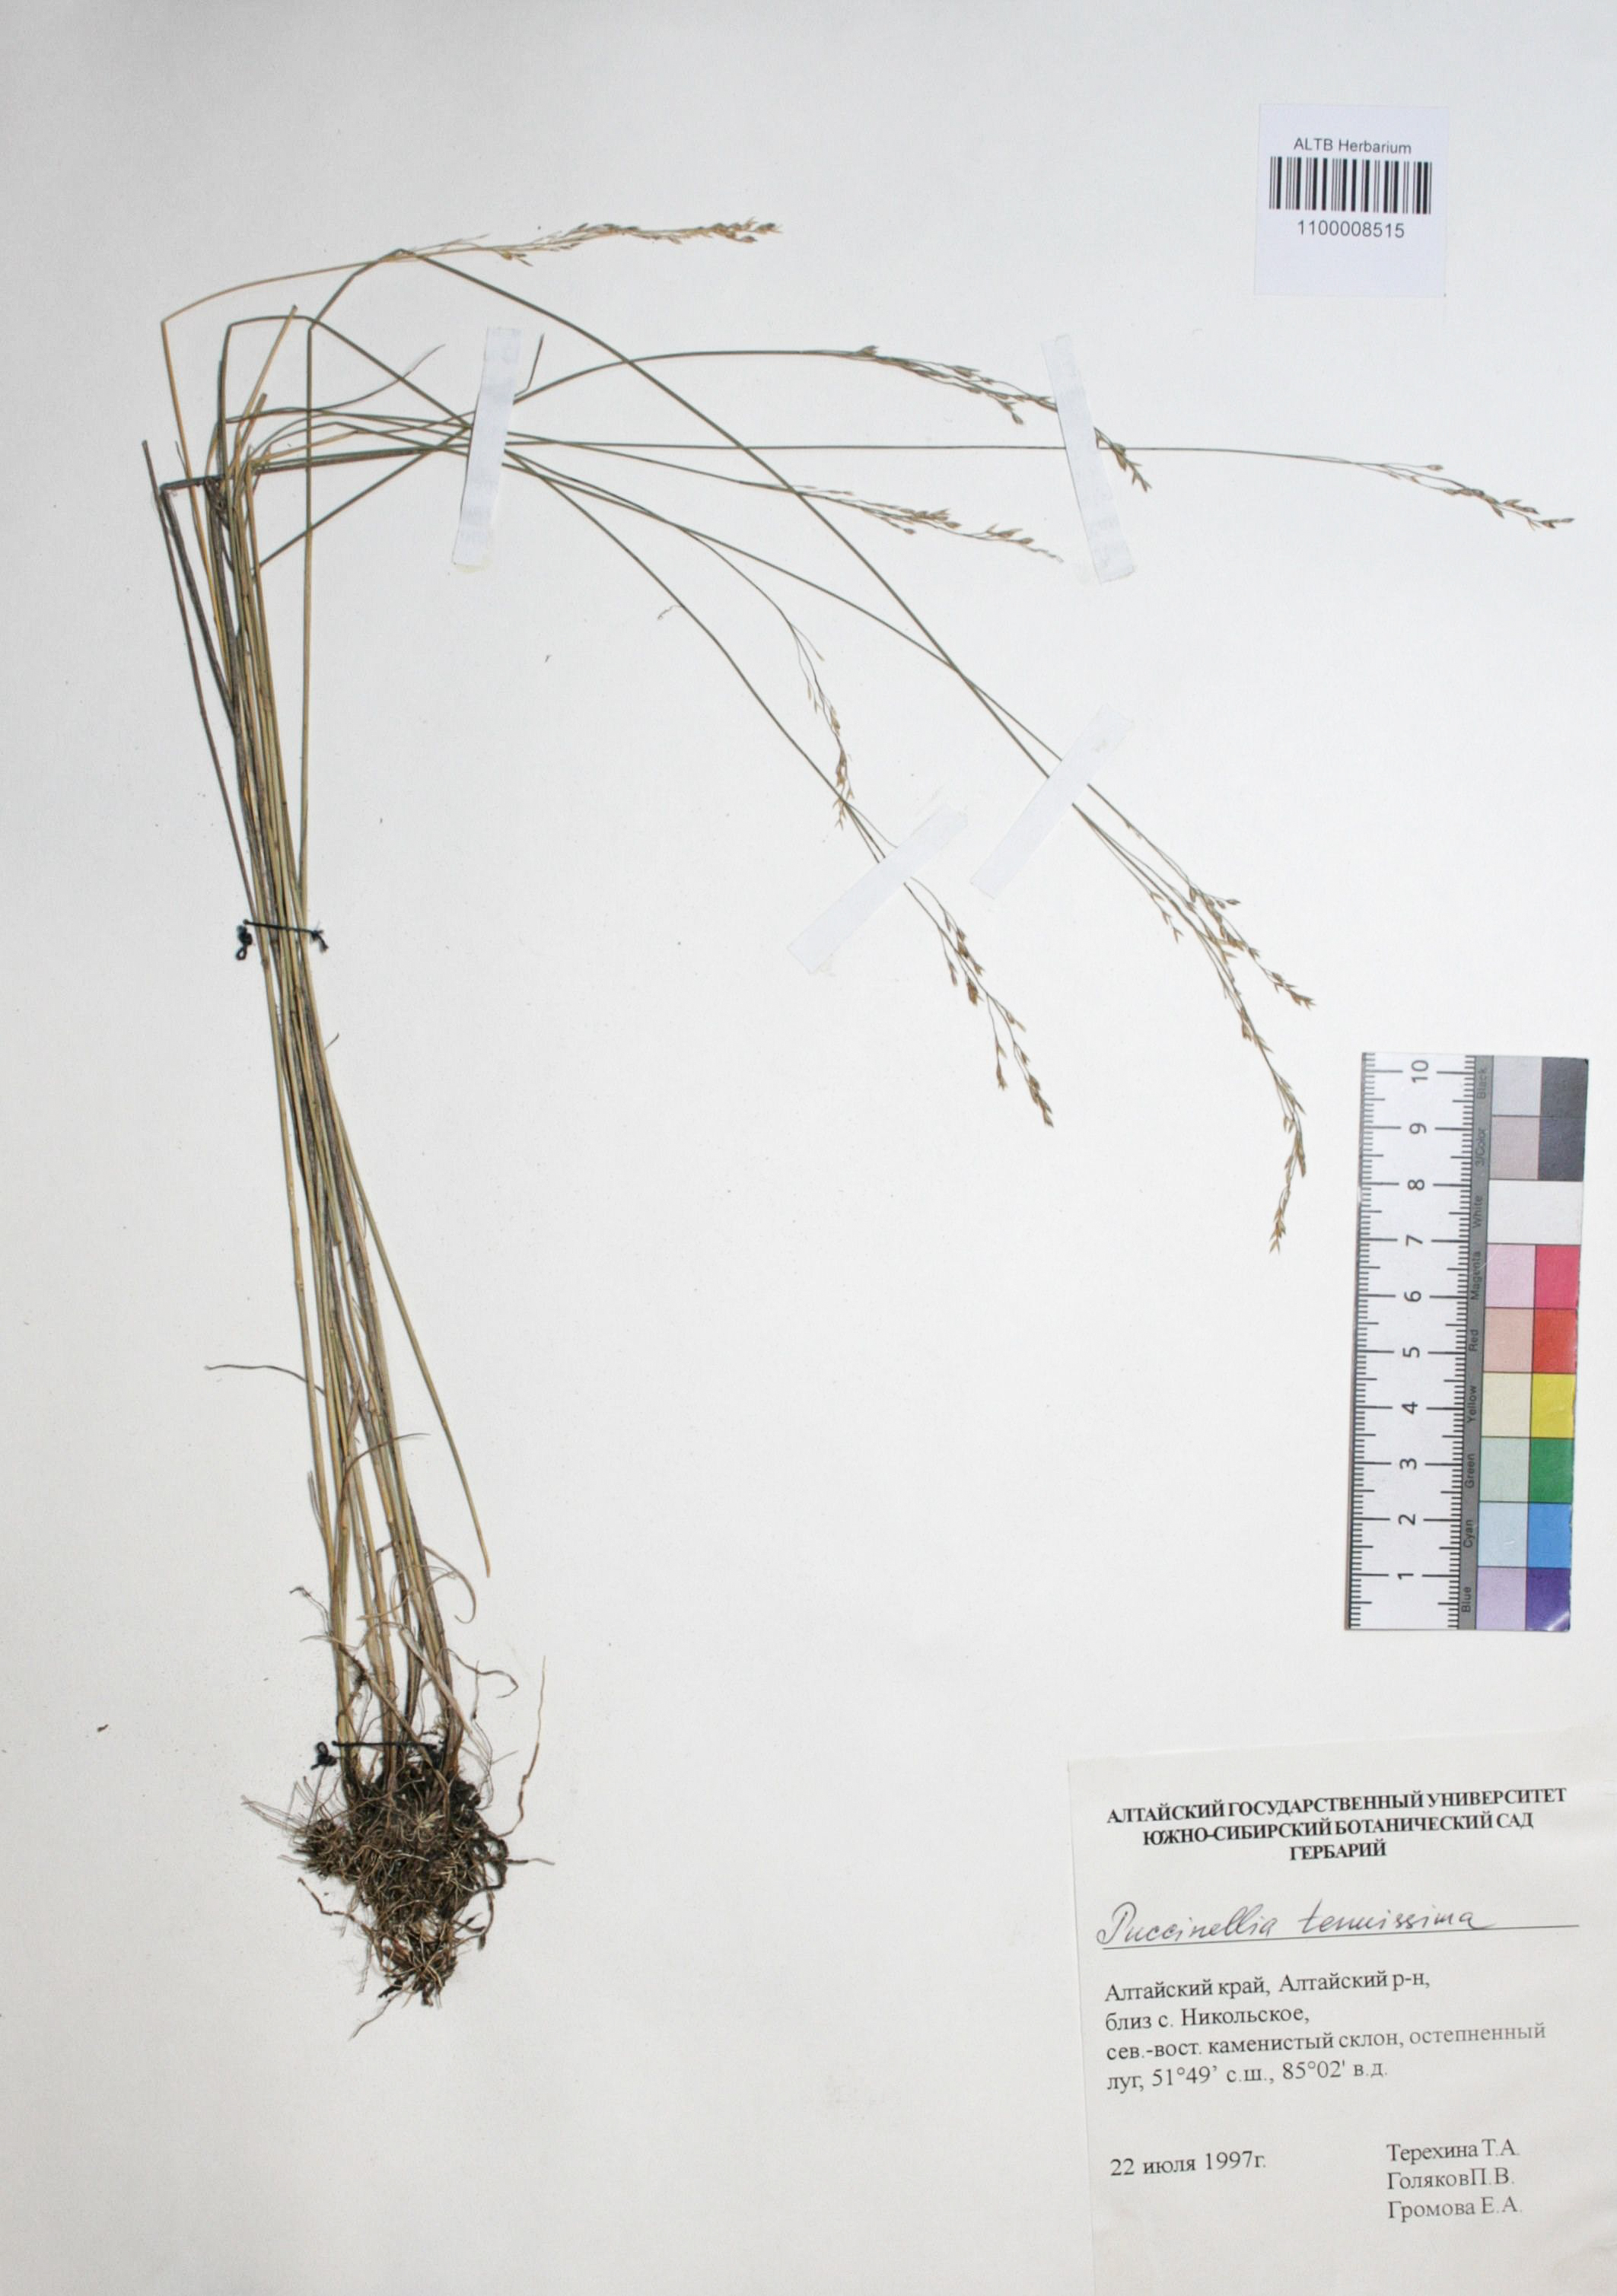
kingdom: Plantae
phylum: Tracheophyta
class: Liliopsida
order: Poales
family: Poaceae
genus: Puccinellia
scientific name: Puccinellia tenuissima
